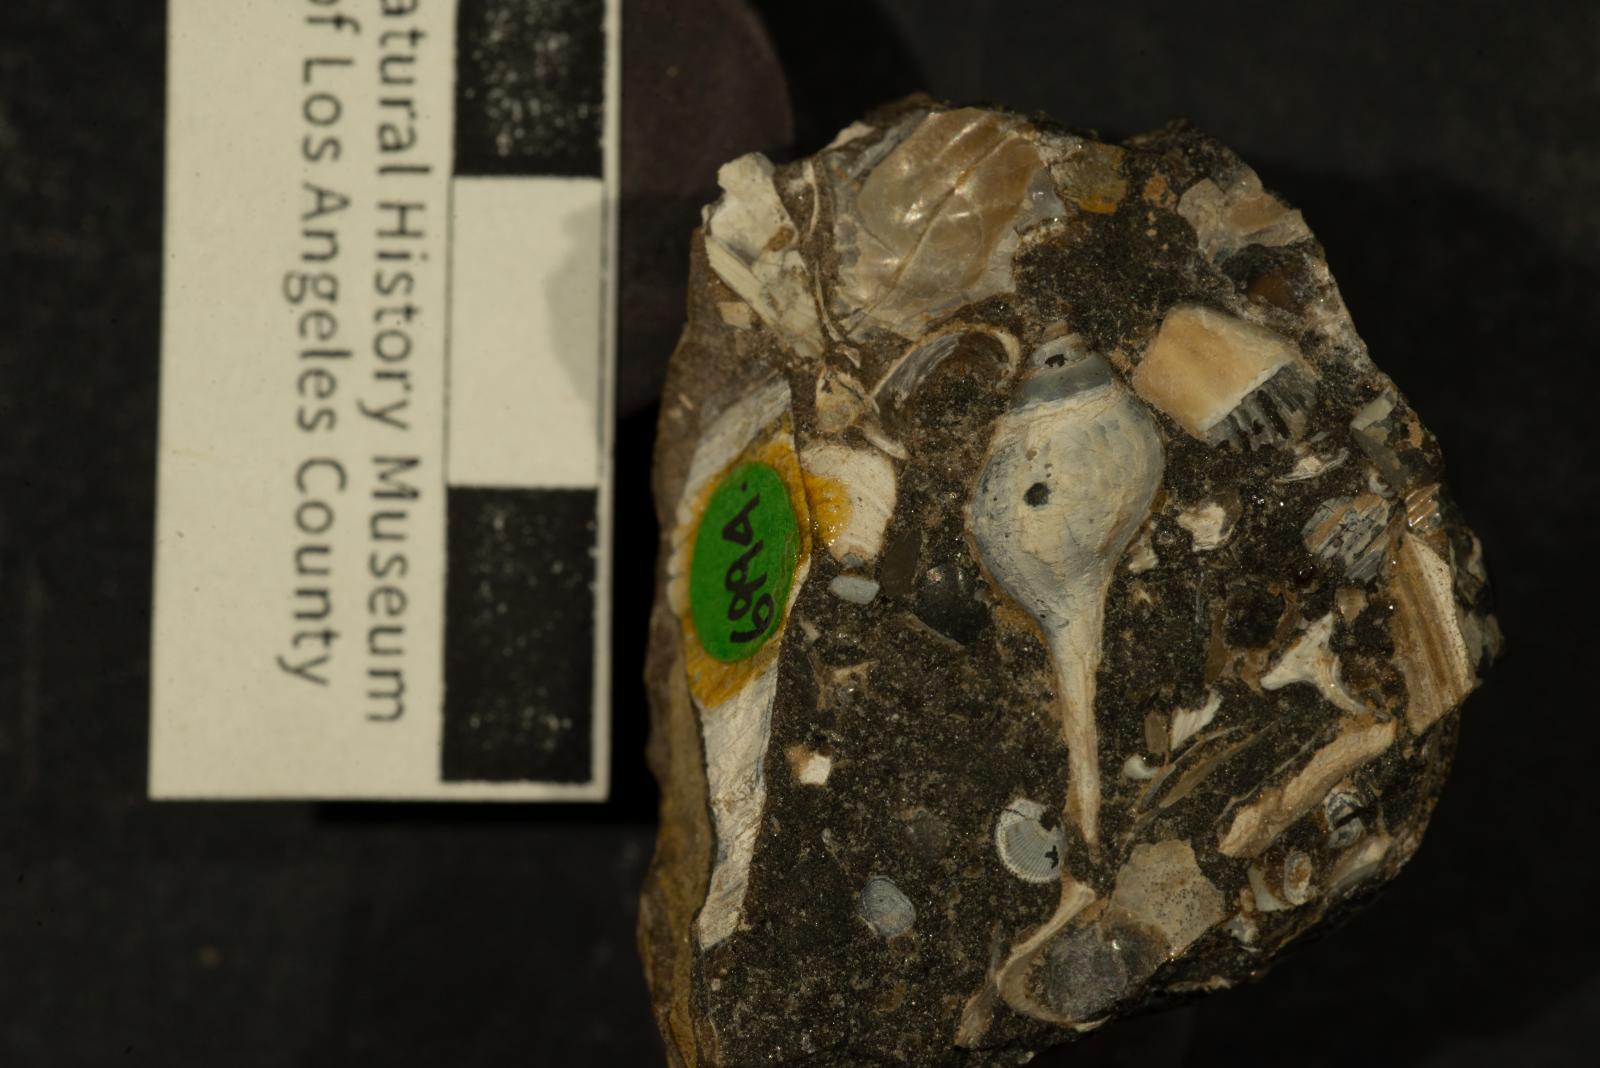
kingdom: Animalia
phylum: Mollusca
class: Gastropoda
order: Neogastropoda
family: Buccinidae
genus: Pentzia
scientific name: Pentzia Fulgur hilgardi
